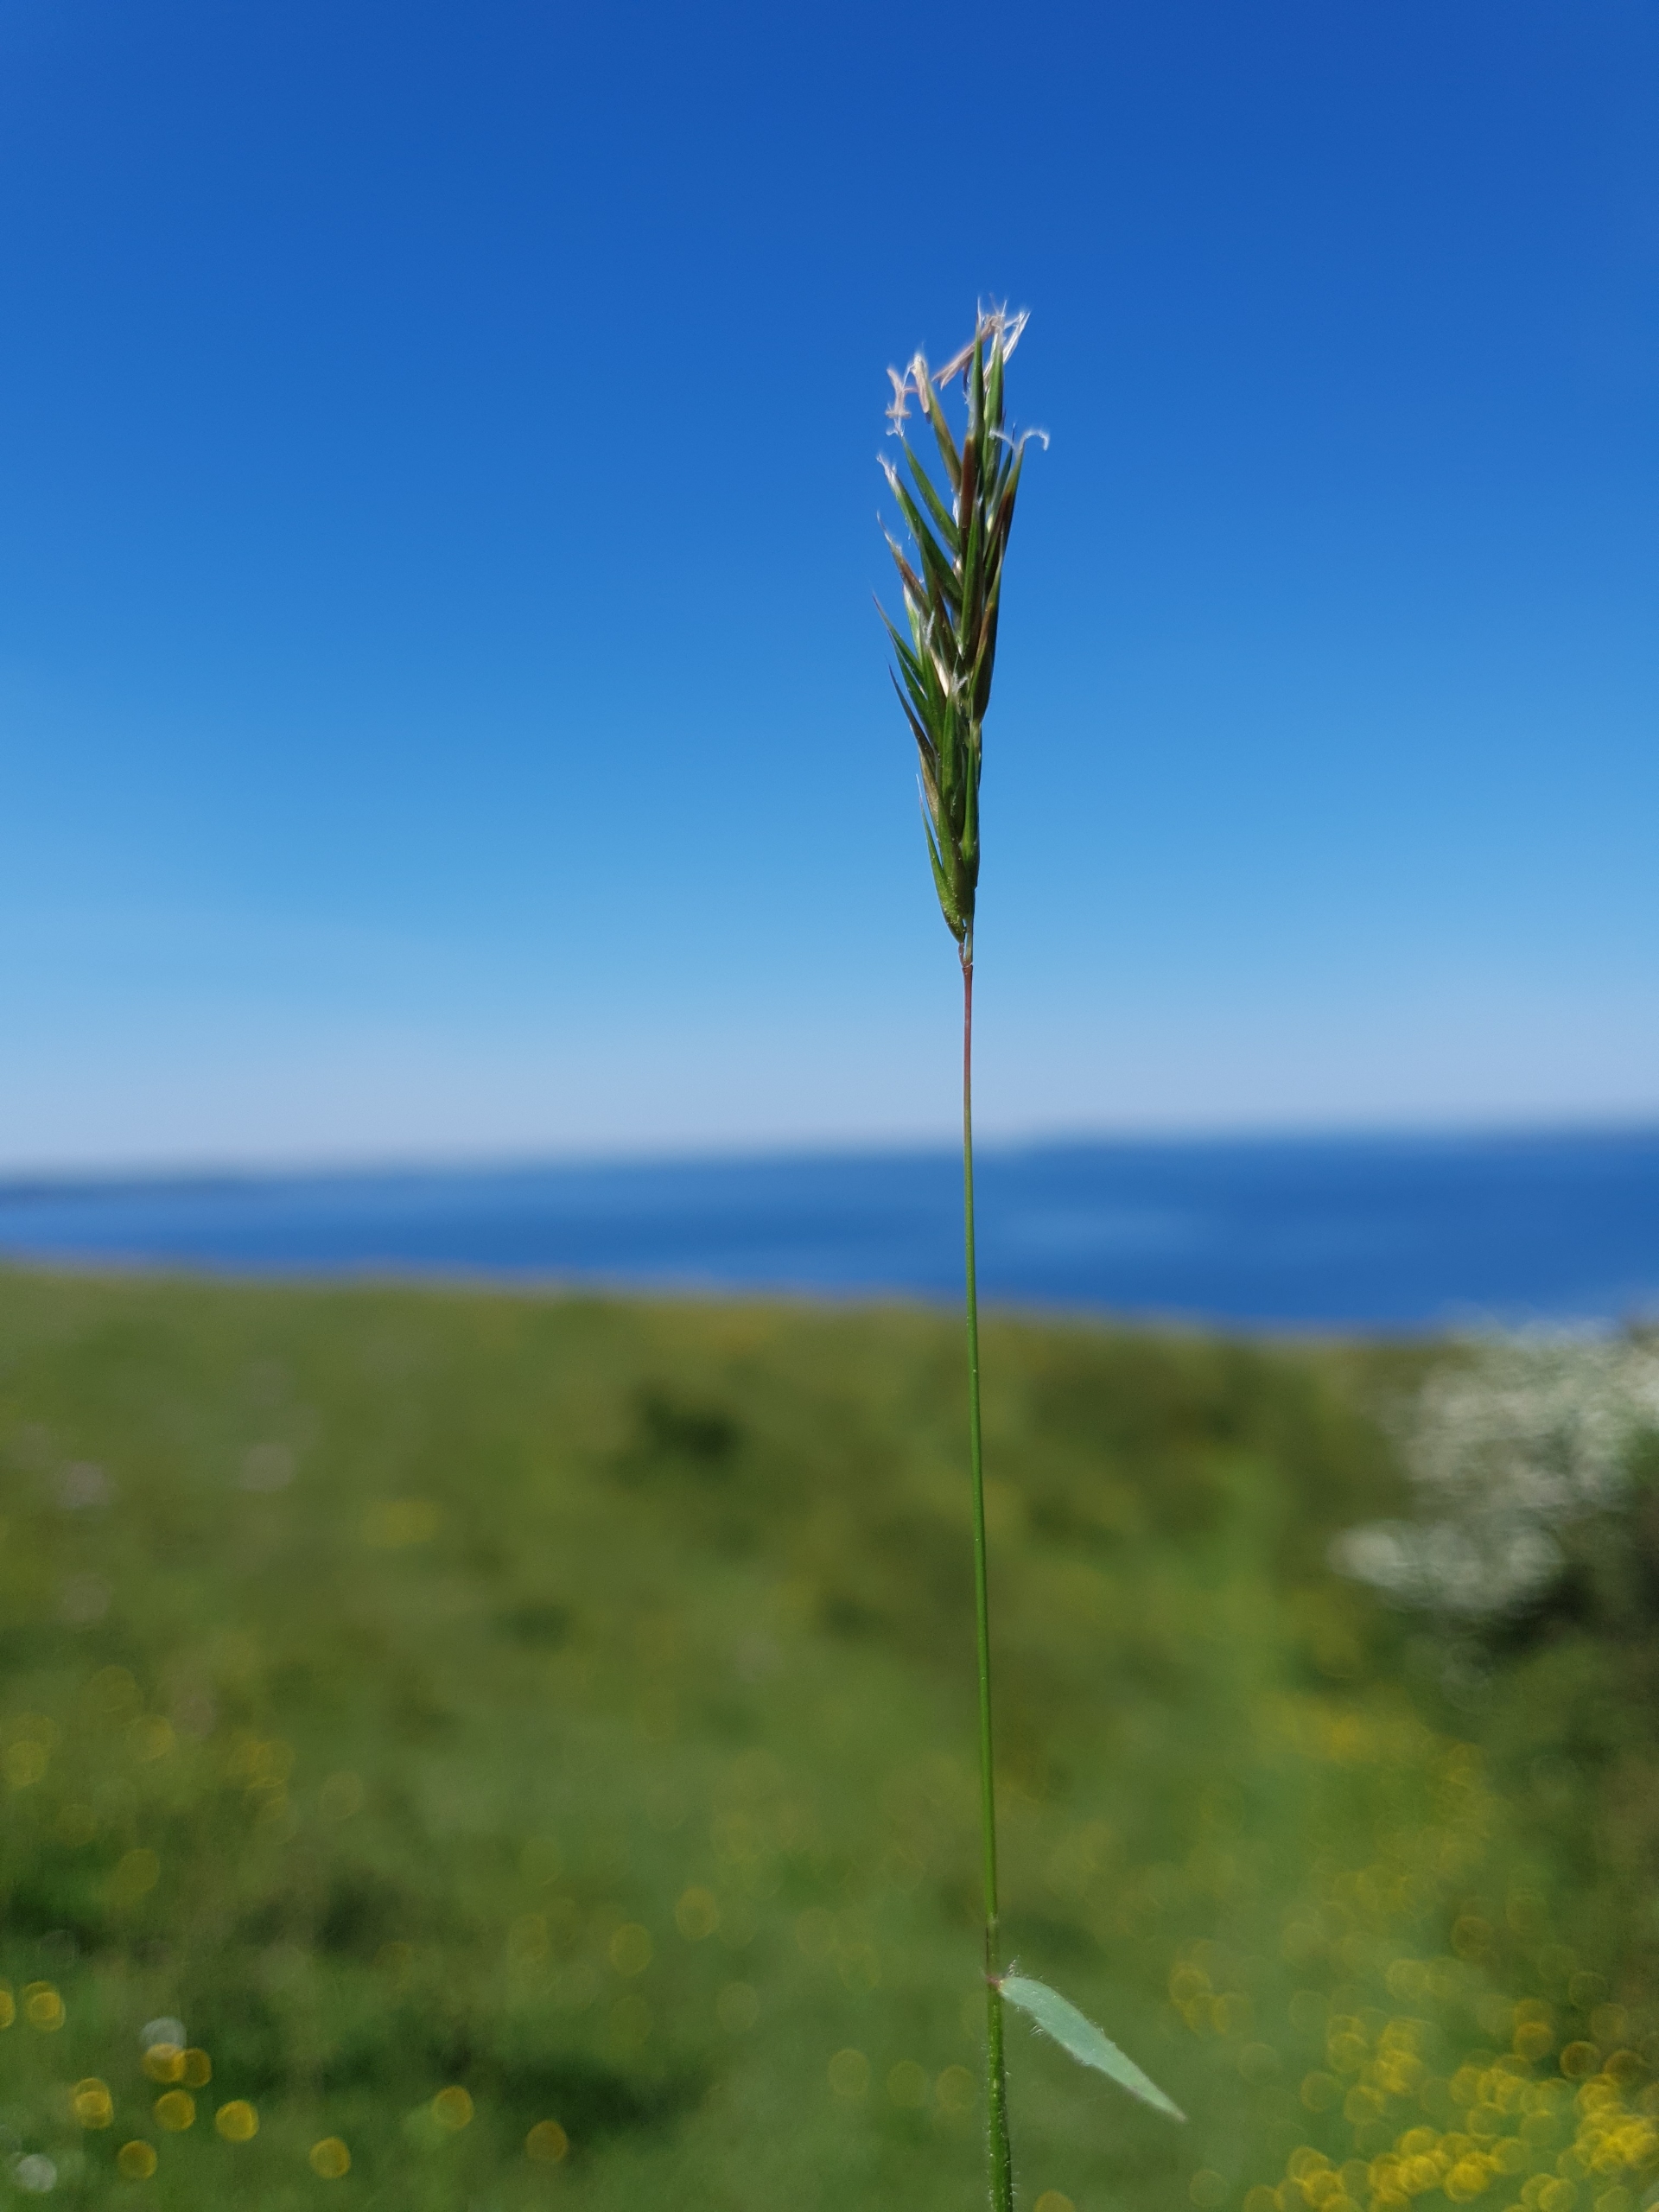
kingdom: Plantae
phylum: Tracheophyta
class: Liliopsida
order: Poales
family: Poaceae
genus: Anthoxanthum
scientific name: Anthoxanthum odoratum
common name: Vellugtende gulaks
